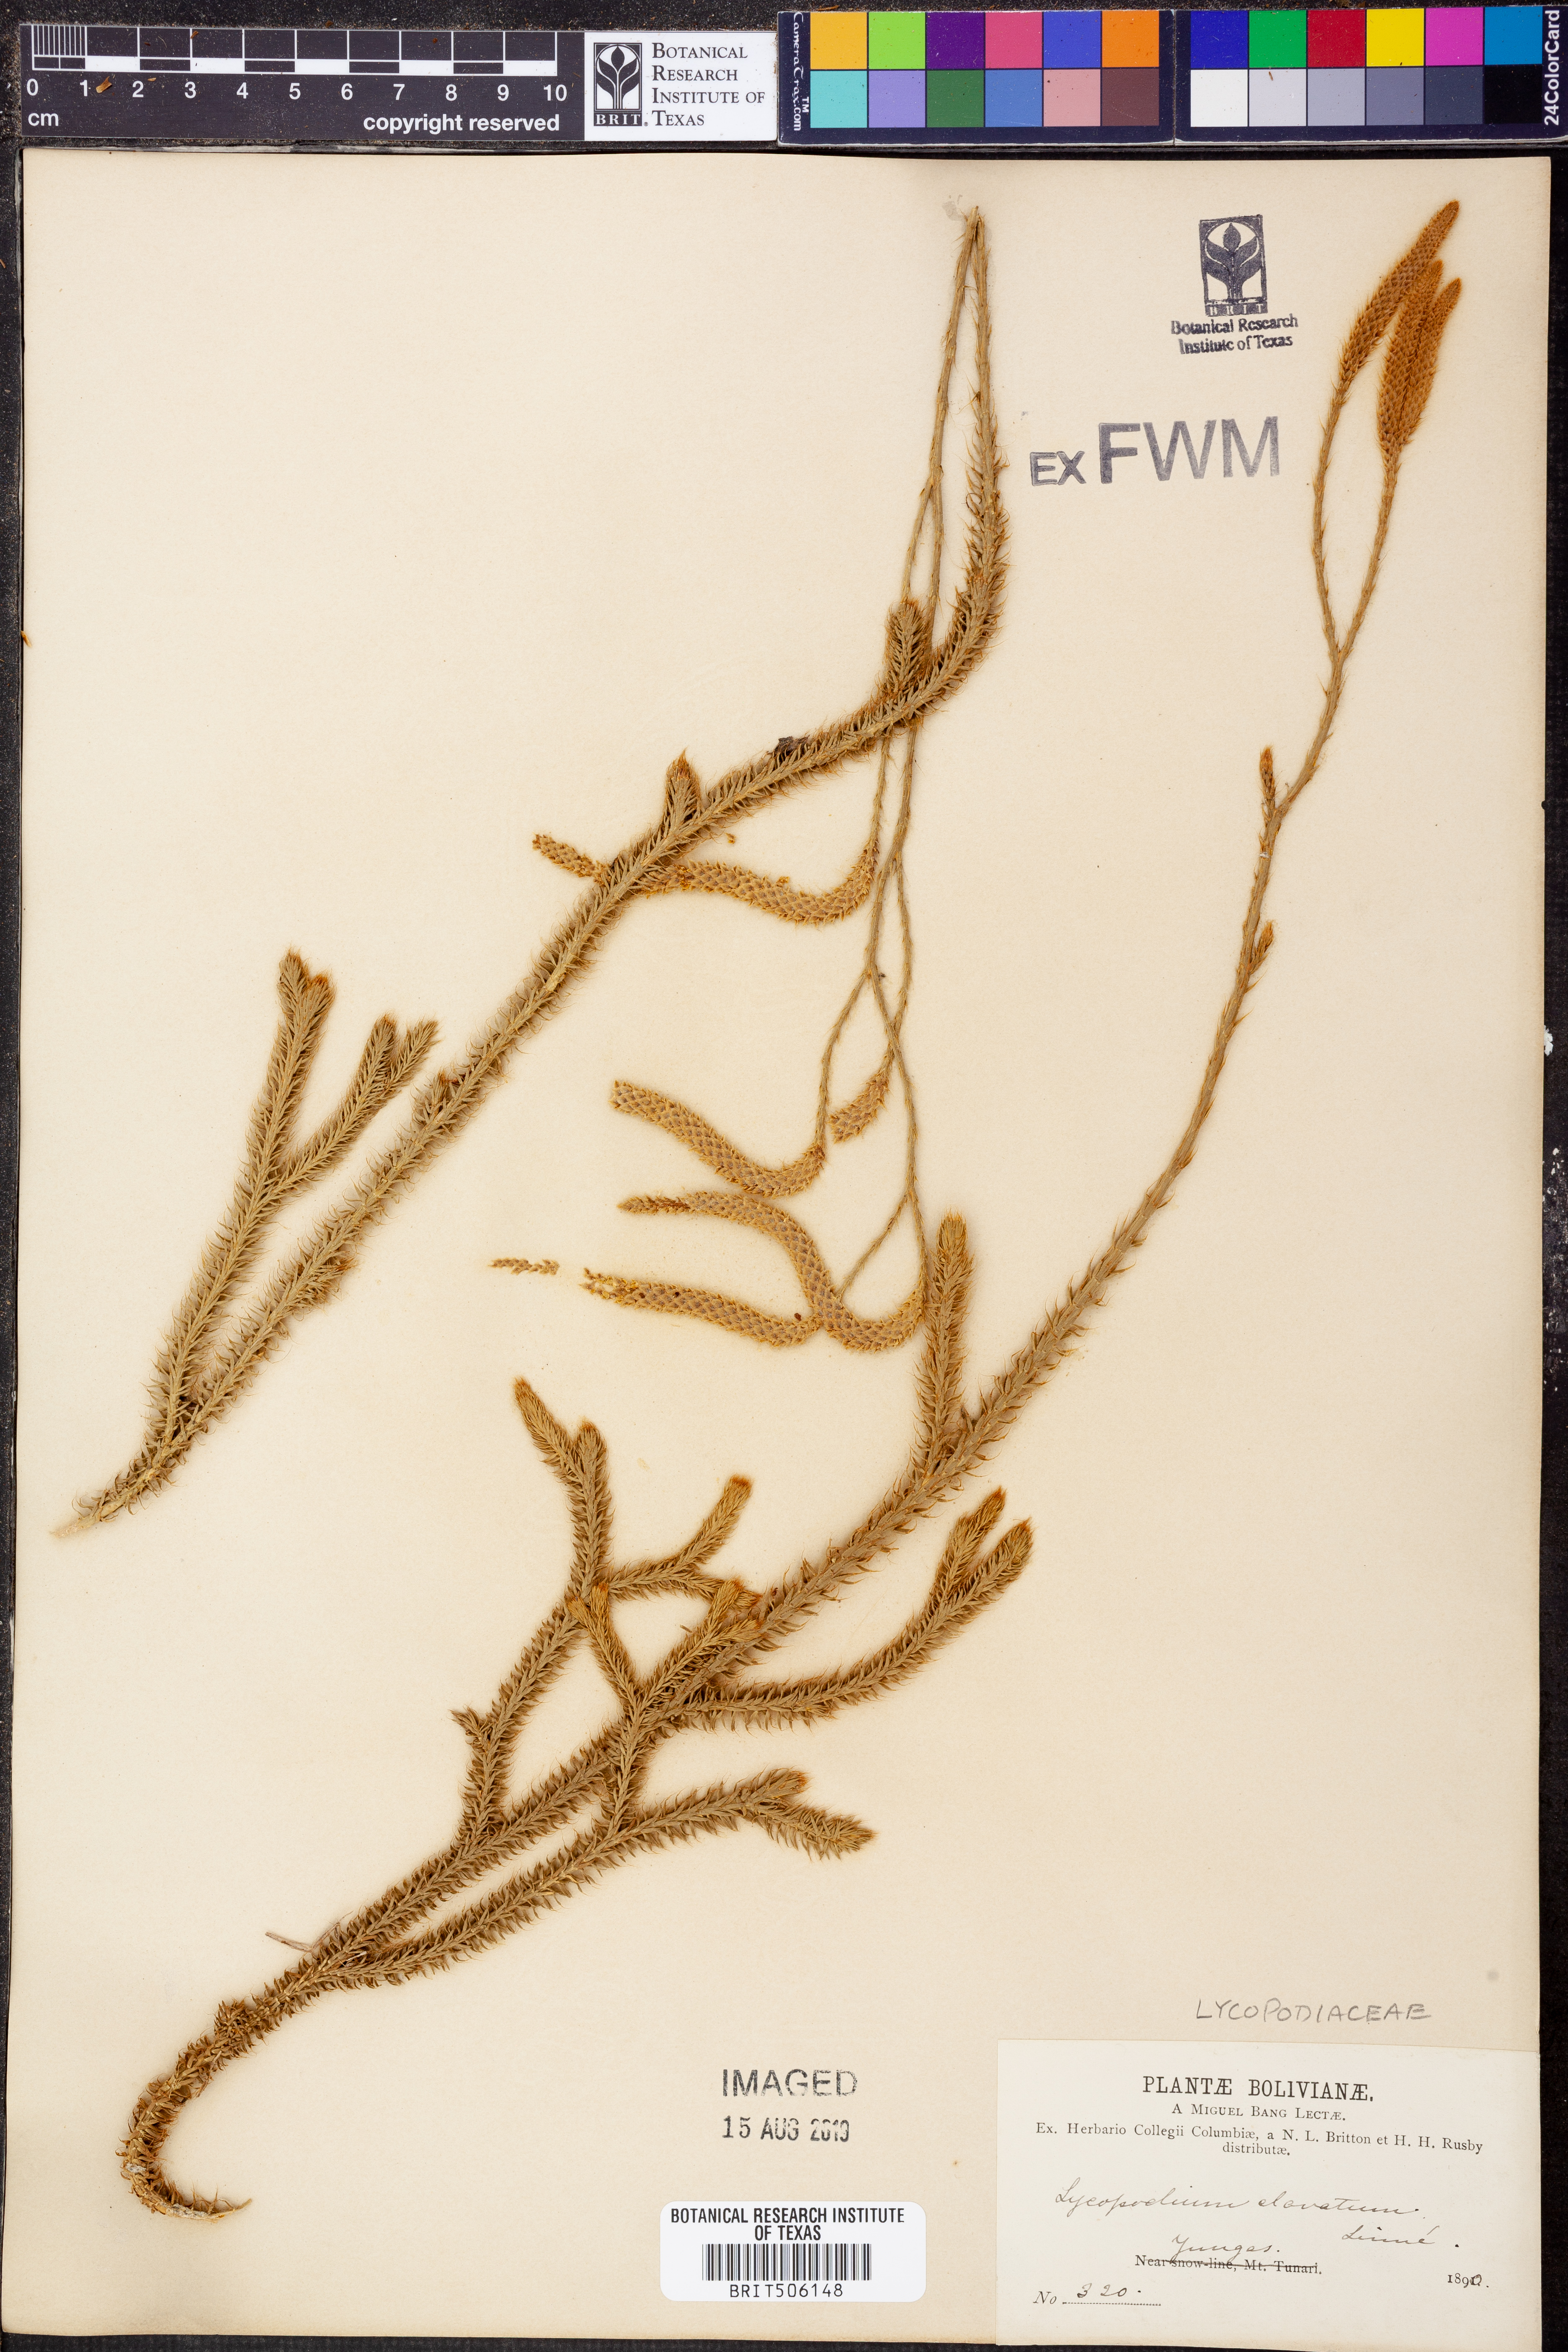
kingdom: Plantae
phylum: Tracheophyta
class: Lycopodiopsida
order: Lycopodiales
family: Lycopodiaceae
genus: Lycopodium
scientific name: Lycopodium clavatum
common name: Stag's-horn clubmoss
